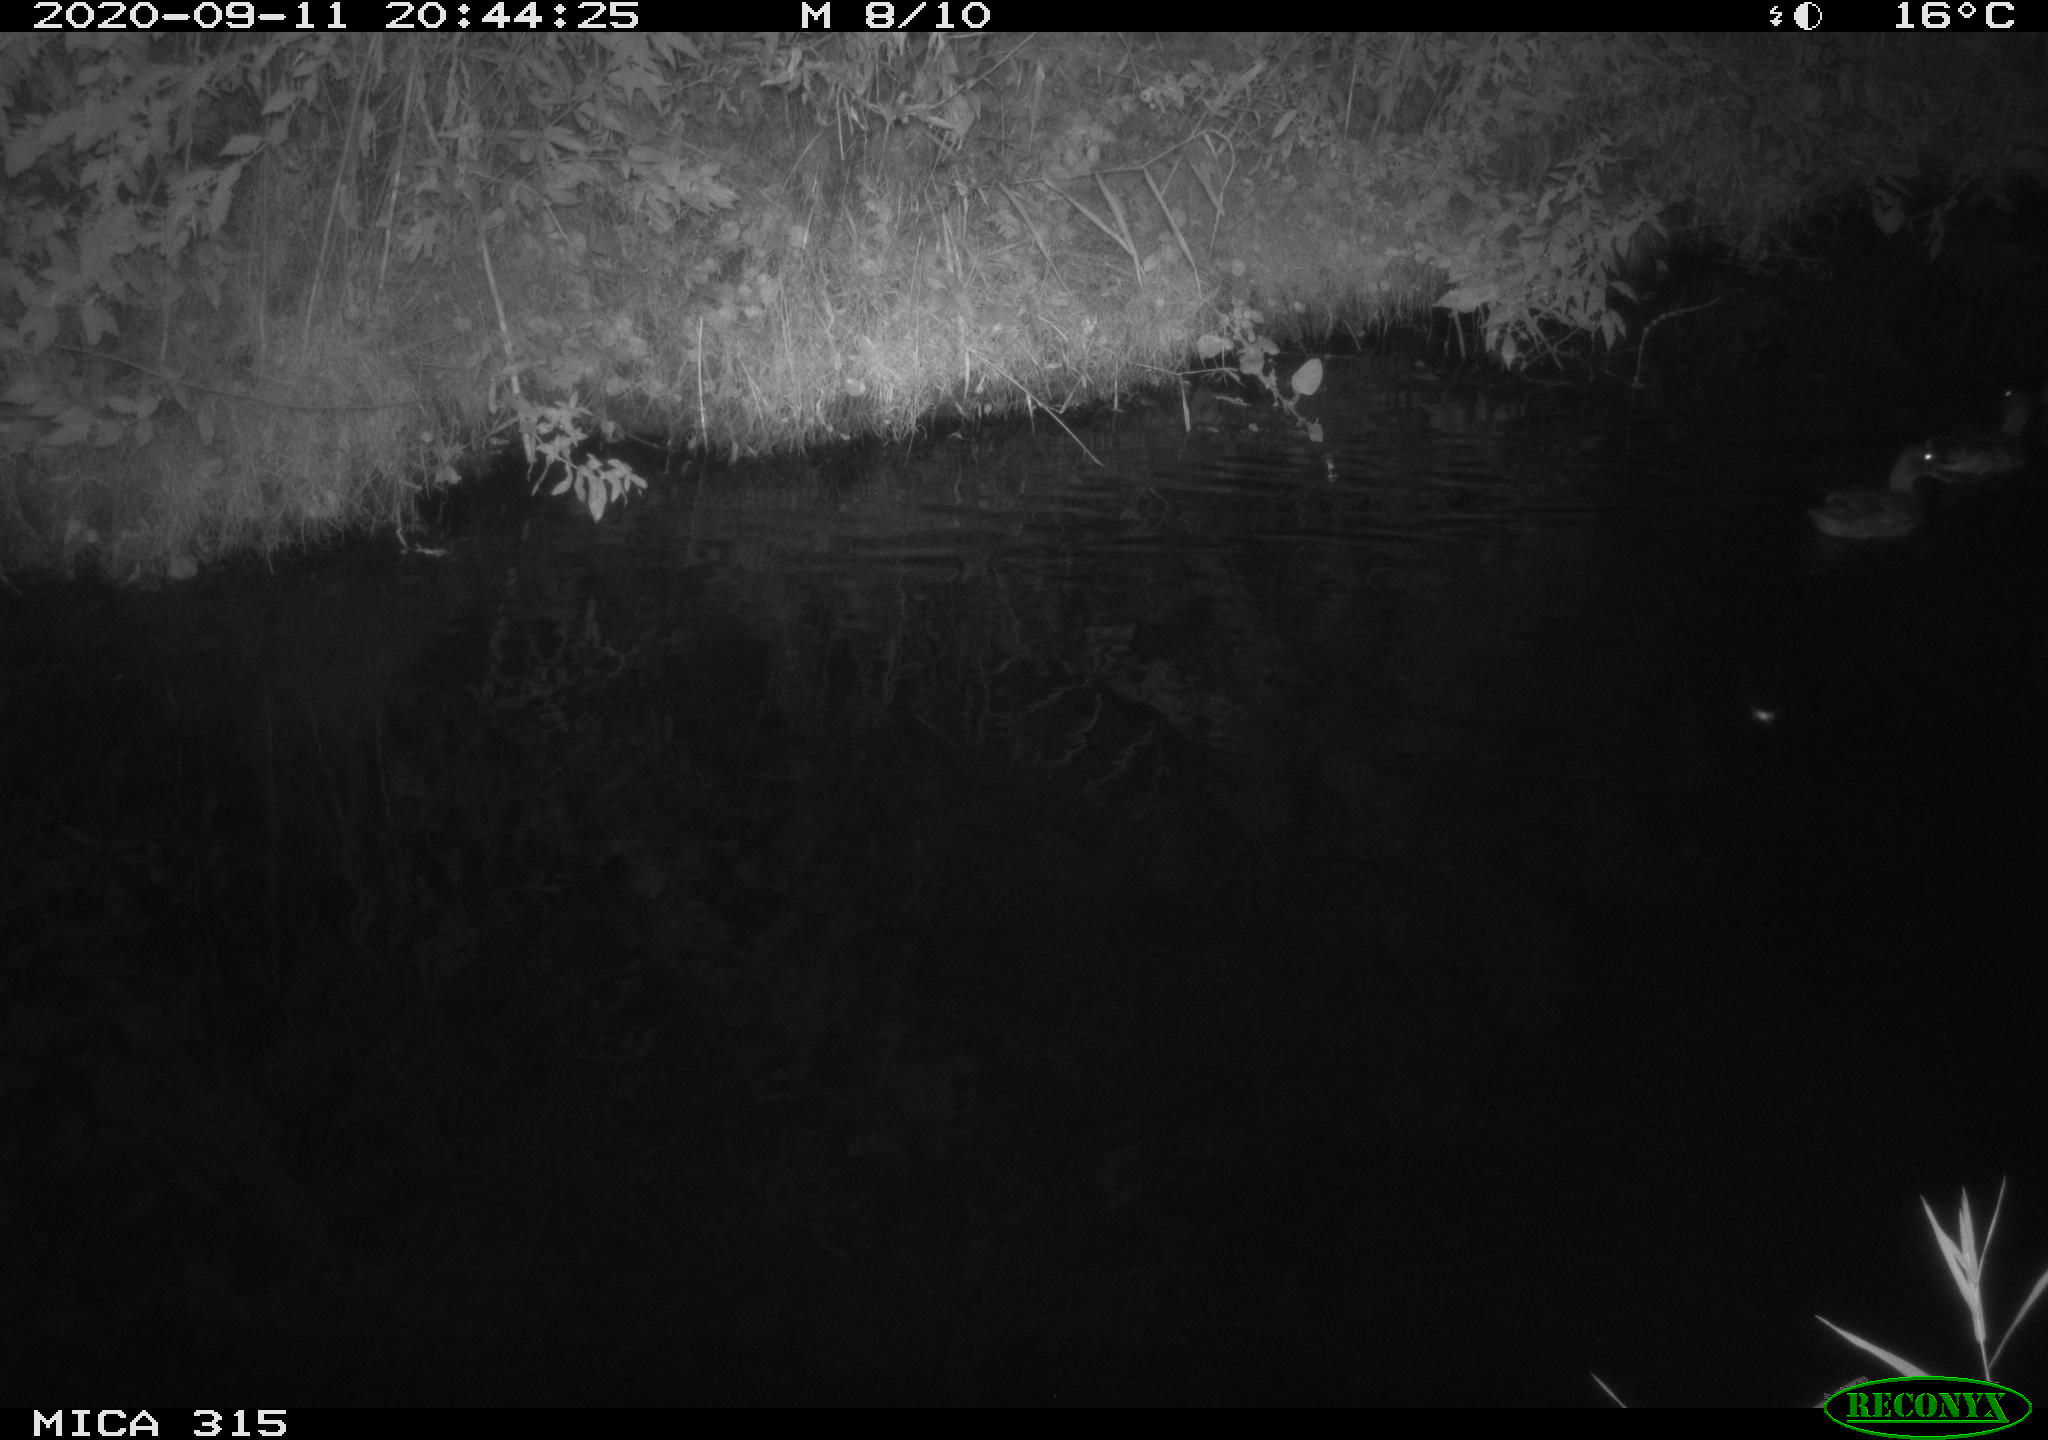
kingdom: Animalia
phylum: Chordata
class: Aves
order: Anseriformes
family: Anatidae
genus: Anas
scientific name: Anas platyrhynchos
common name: Mallard
